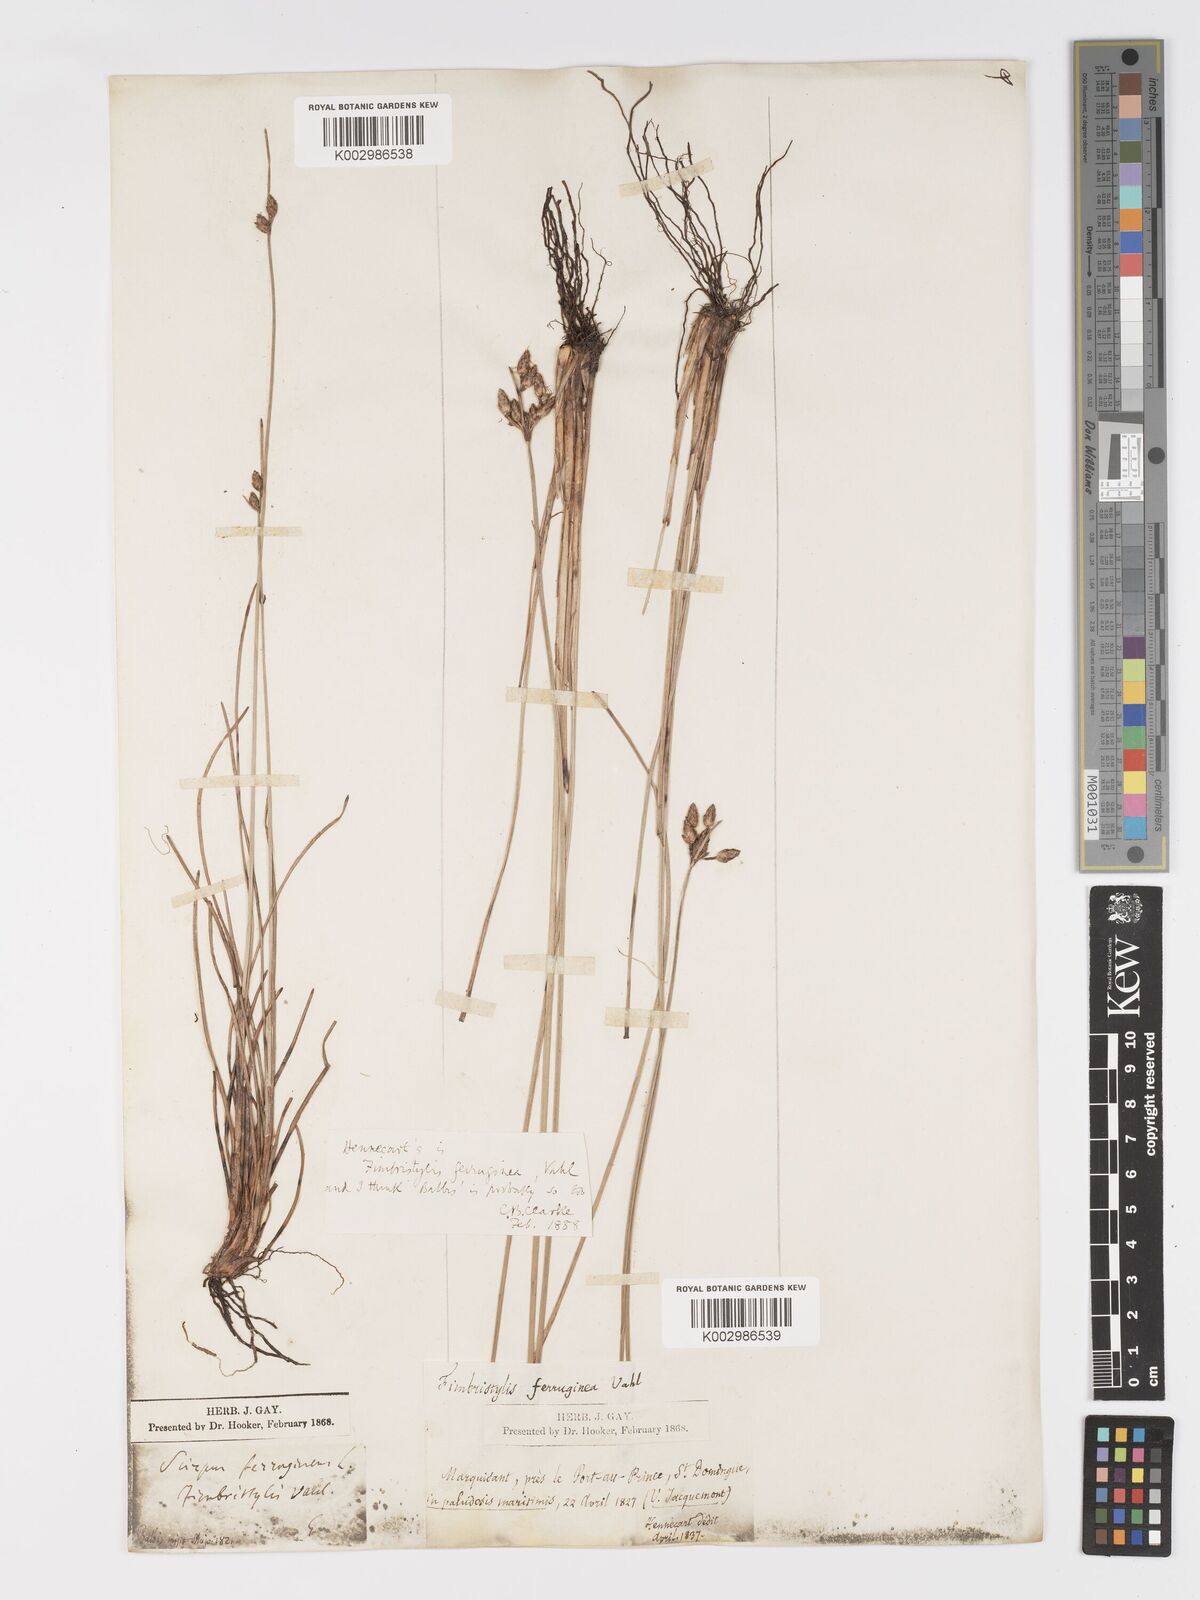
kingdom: Plantae
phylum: Tracheophyta
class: Liliopsida
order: Poales
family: Cyperaceae
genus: Fimbristylis
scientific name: Fimbristylis ferruginea
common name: West indian fimbry
